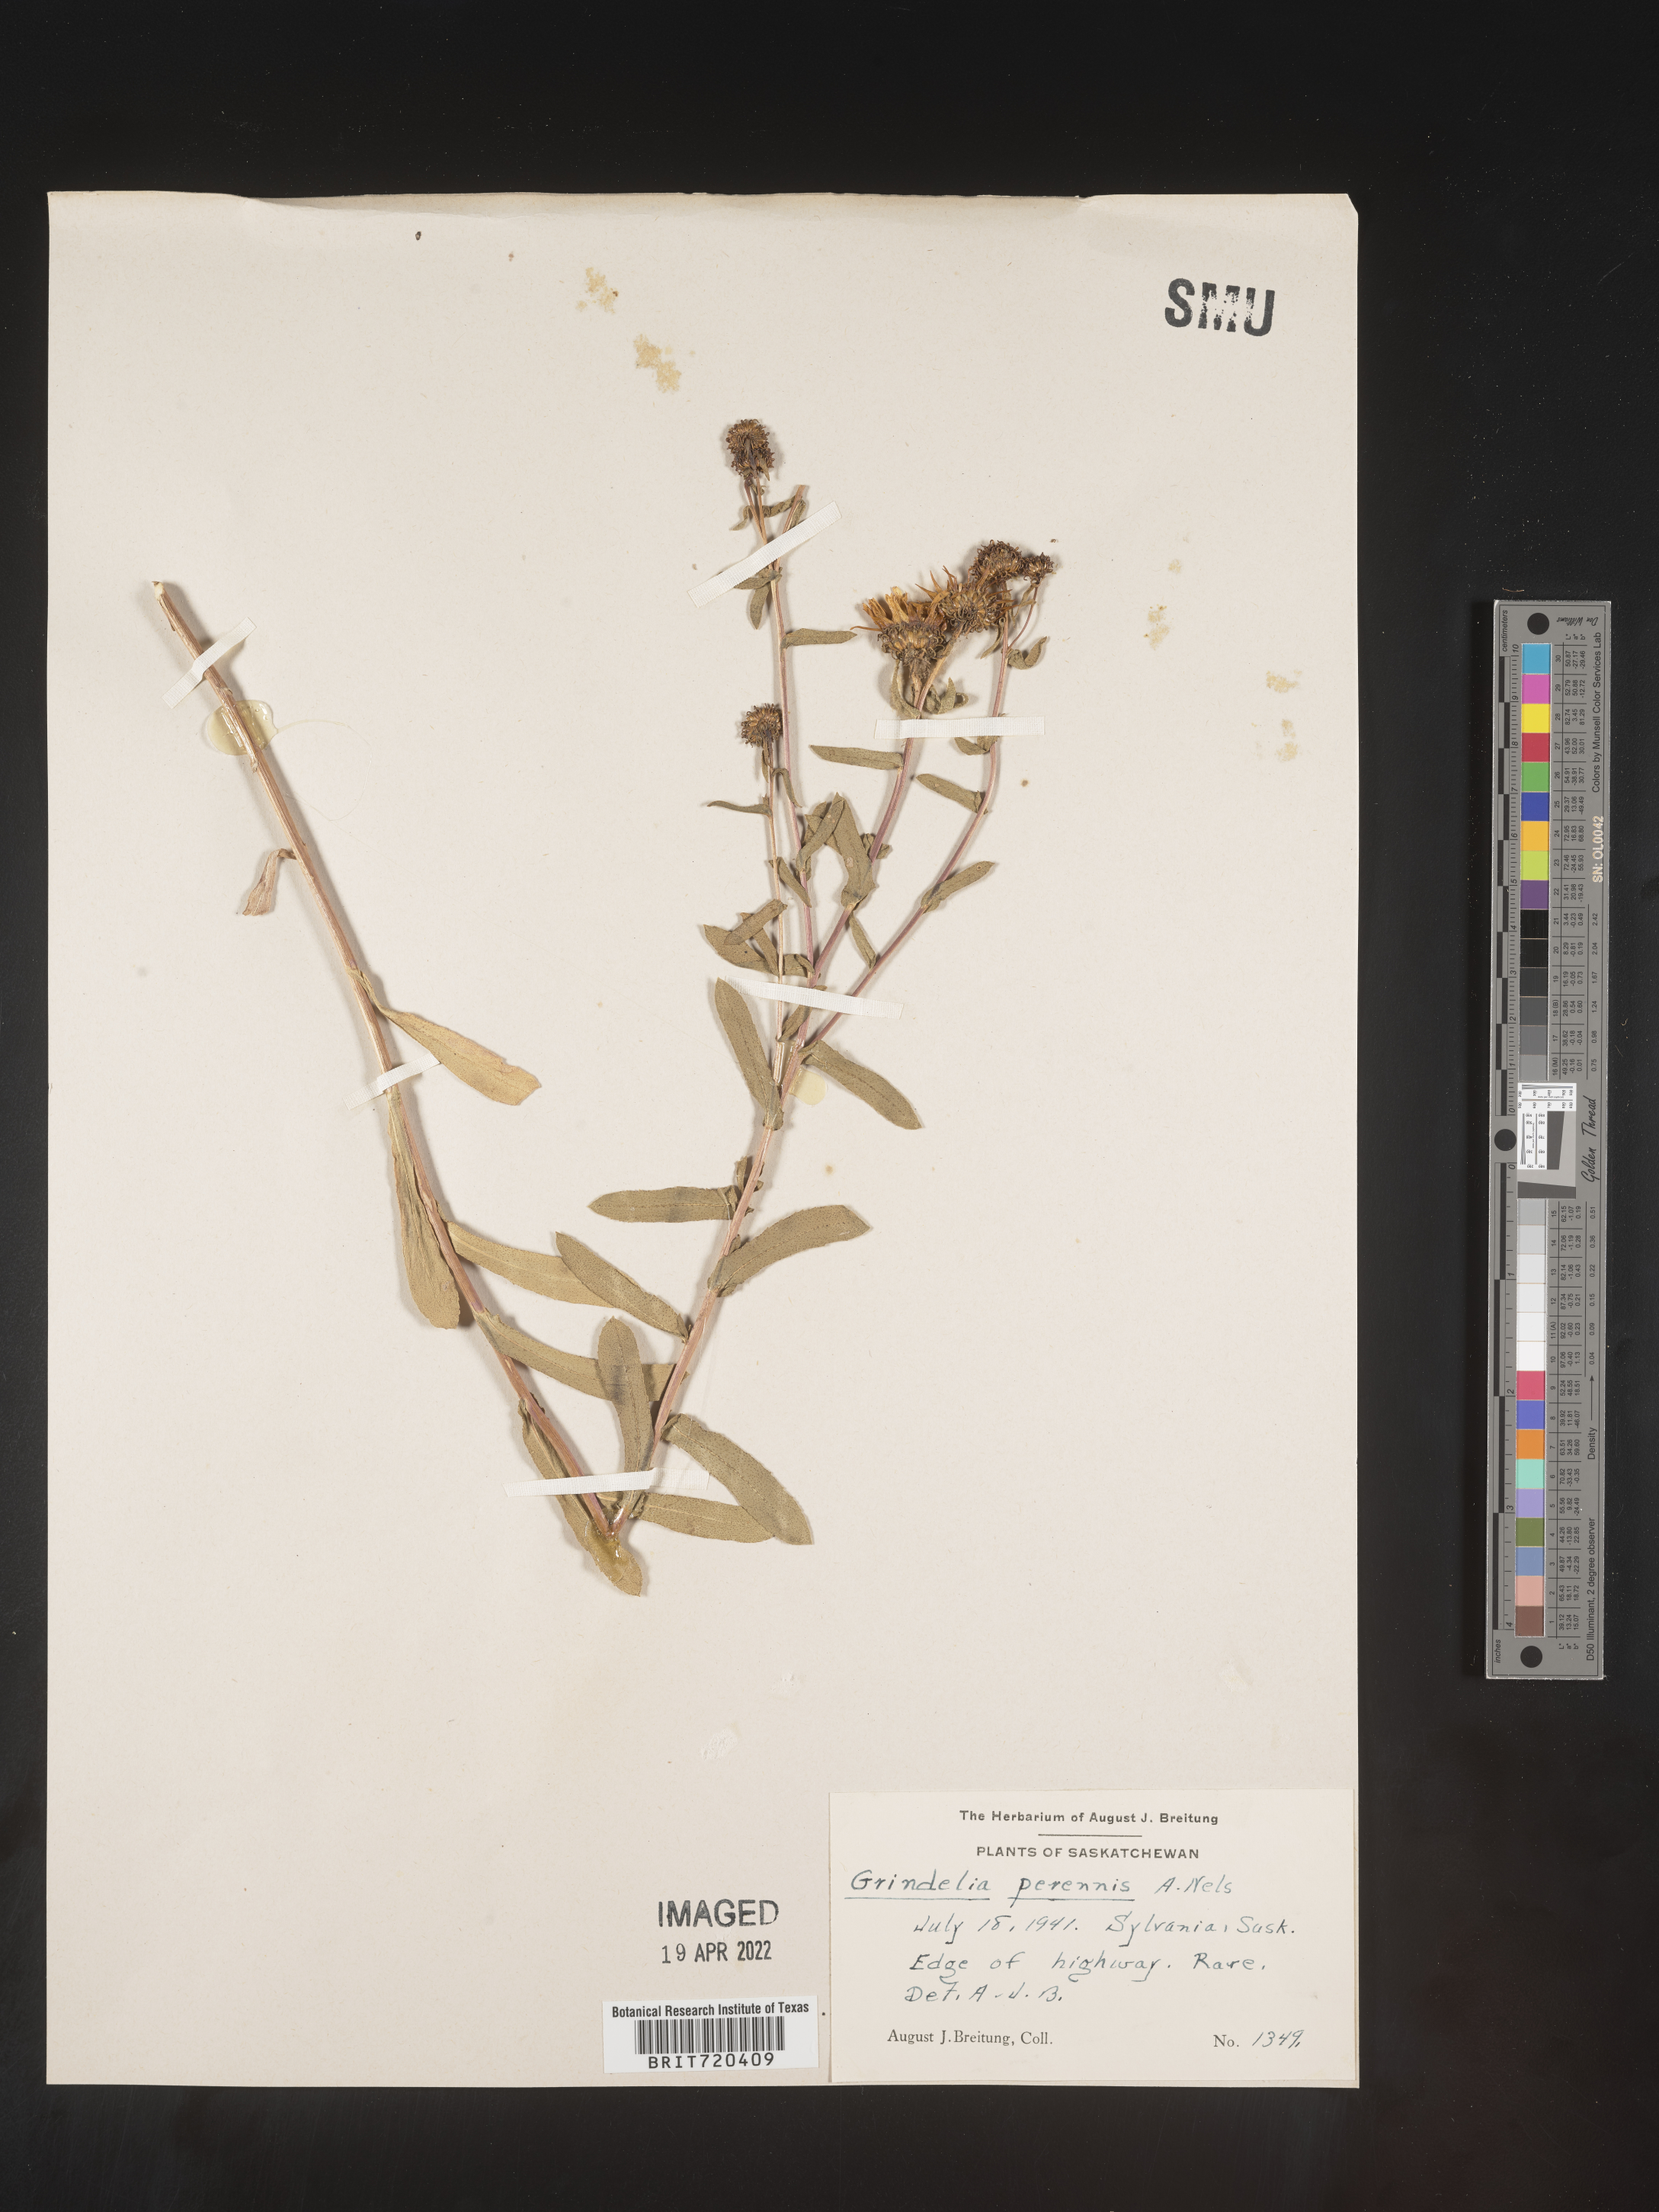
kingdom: Plantae
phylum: Tracheophyta
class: Magnoliopsida
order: Asterales
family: Asteraceae
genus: Grindelia
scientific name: Grindelia squarrosa
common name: Curly-cup gumweed
